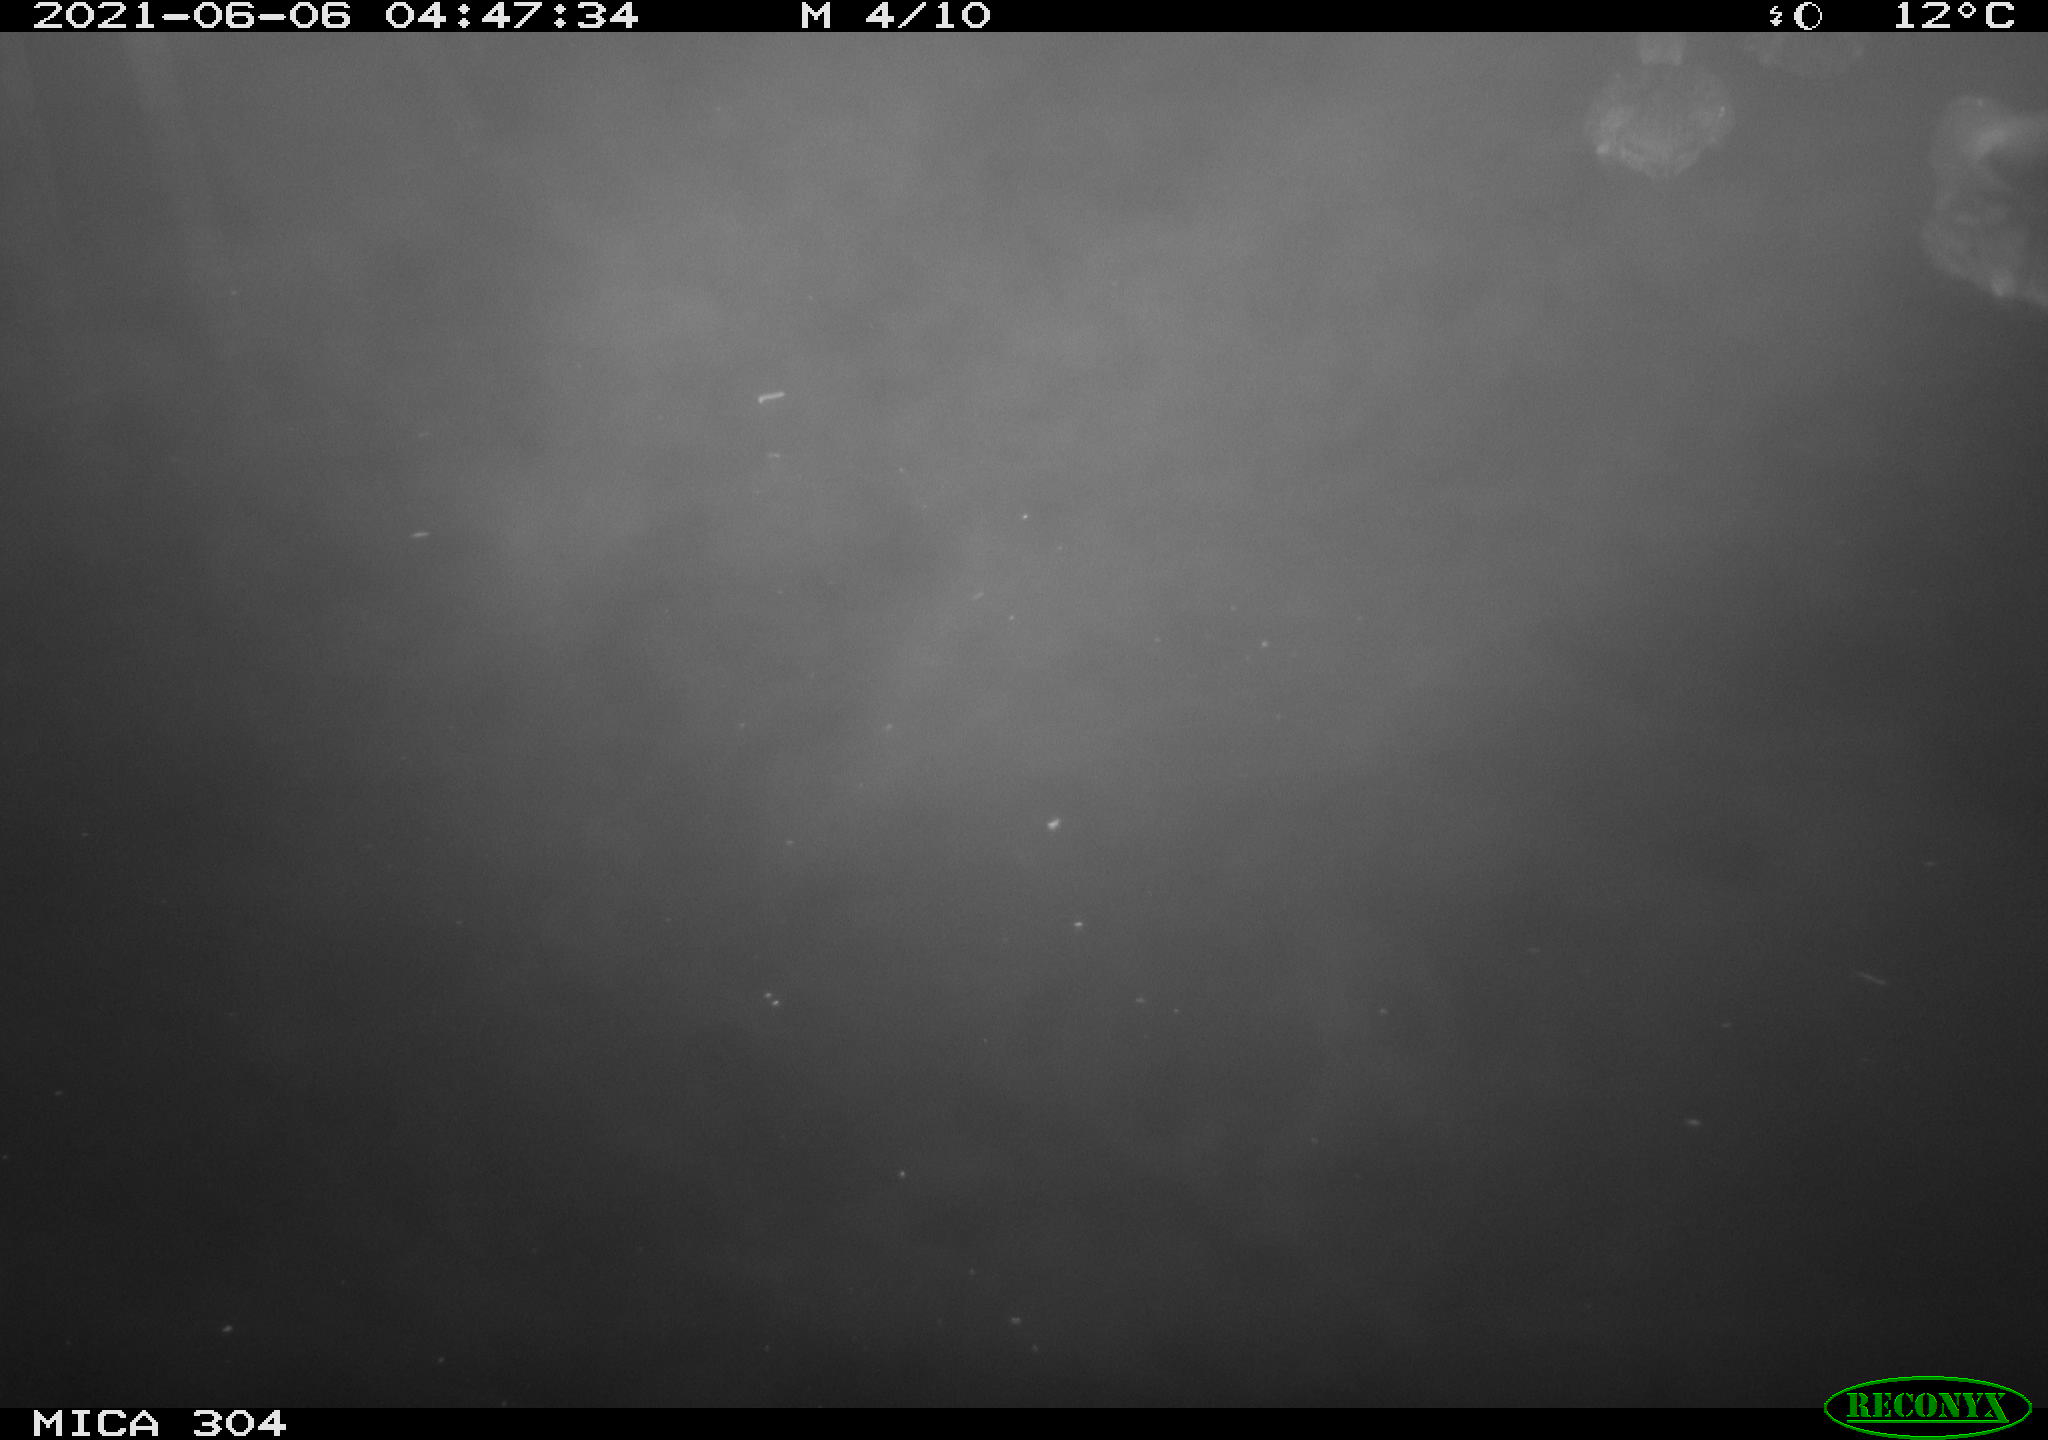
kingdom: Animalia
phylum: Chordata
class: Aves
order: Anseriformes
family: Anatidae
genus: Anas
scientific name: Anas platyrhynchos
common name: Mallard
